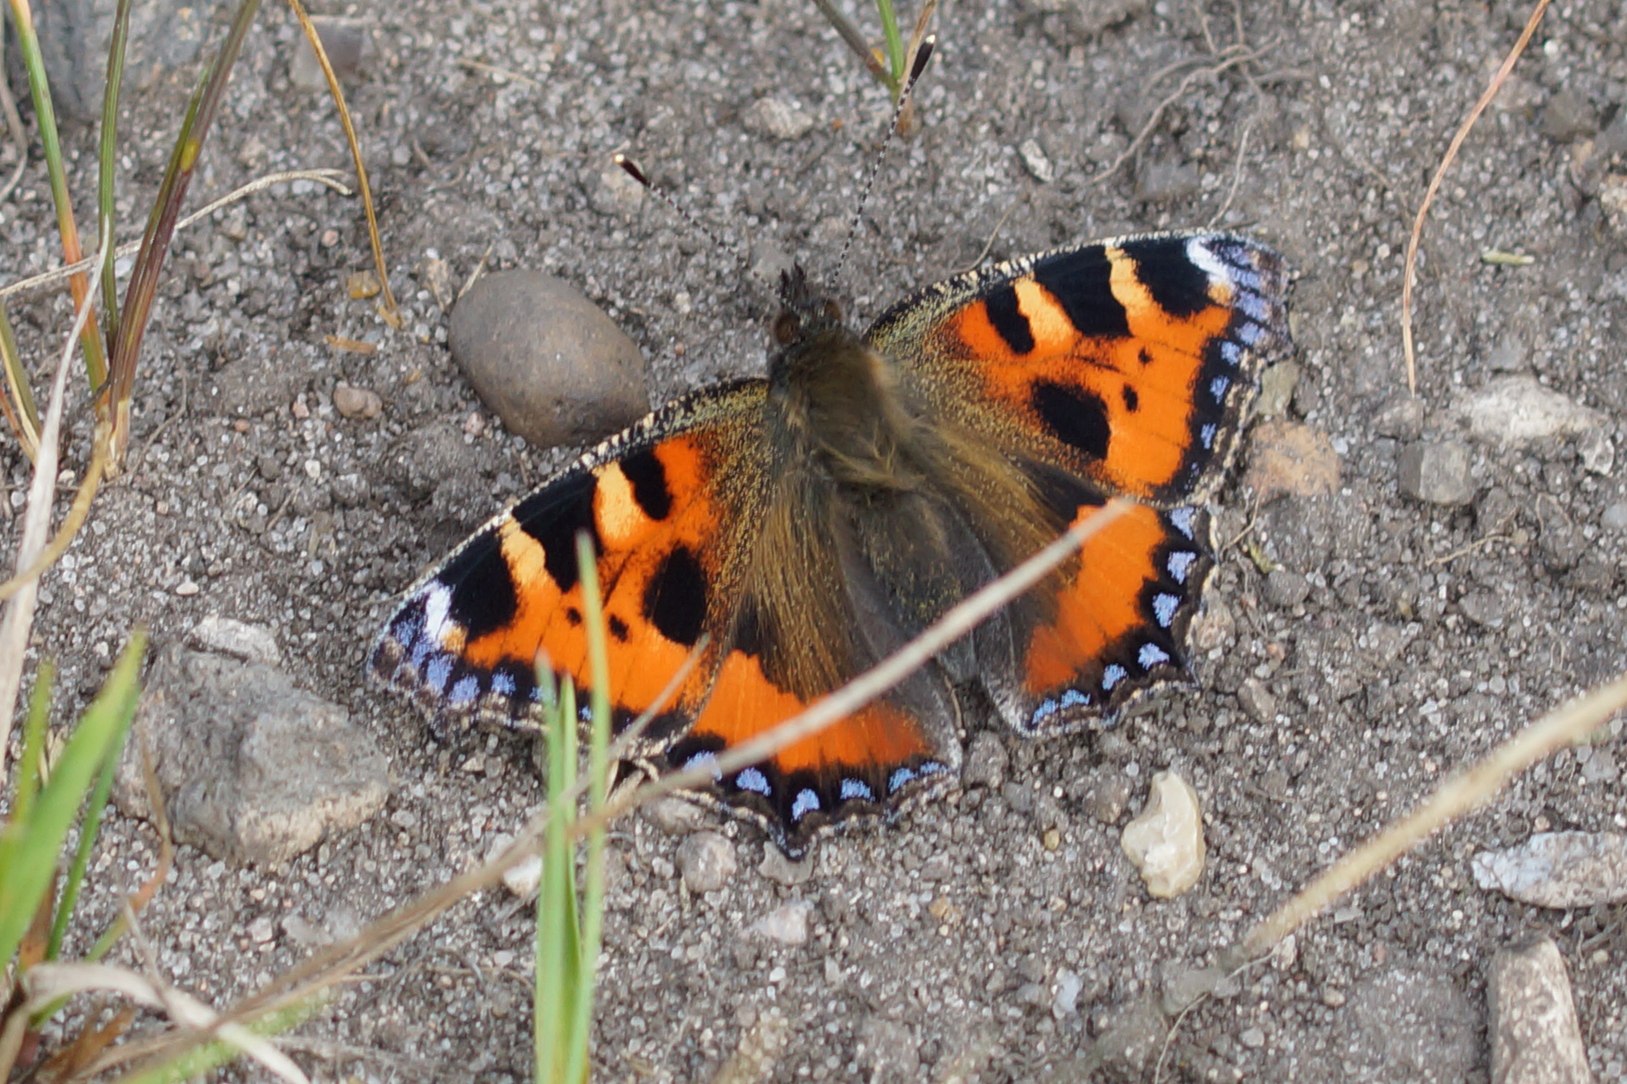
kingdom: Animalia
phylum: Arthropoda
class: Insecta
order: Lepidoptera
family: Nymphalidae
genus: Aglais
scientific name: Aglais urticae
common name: Nældens takvinge
